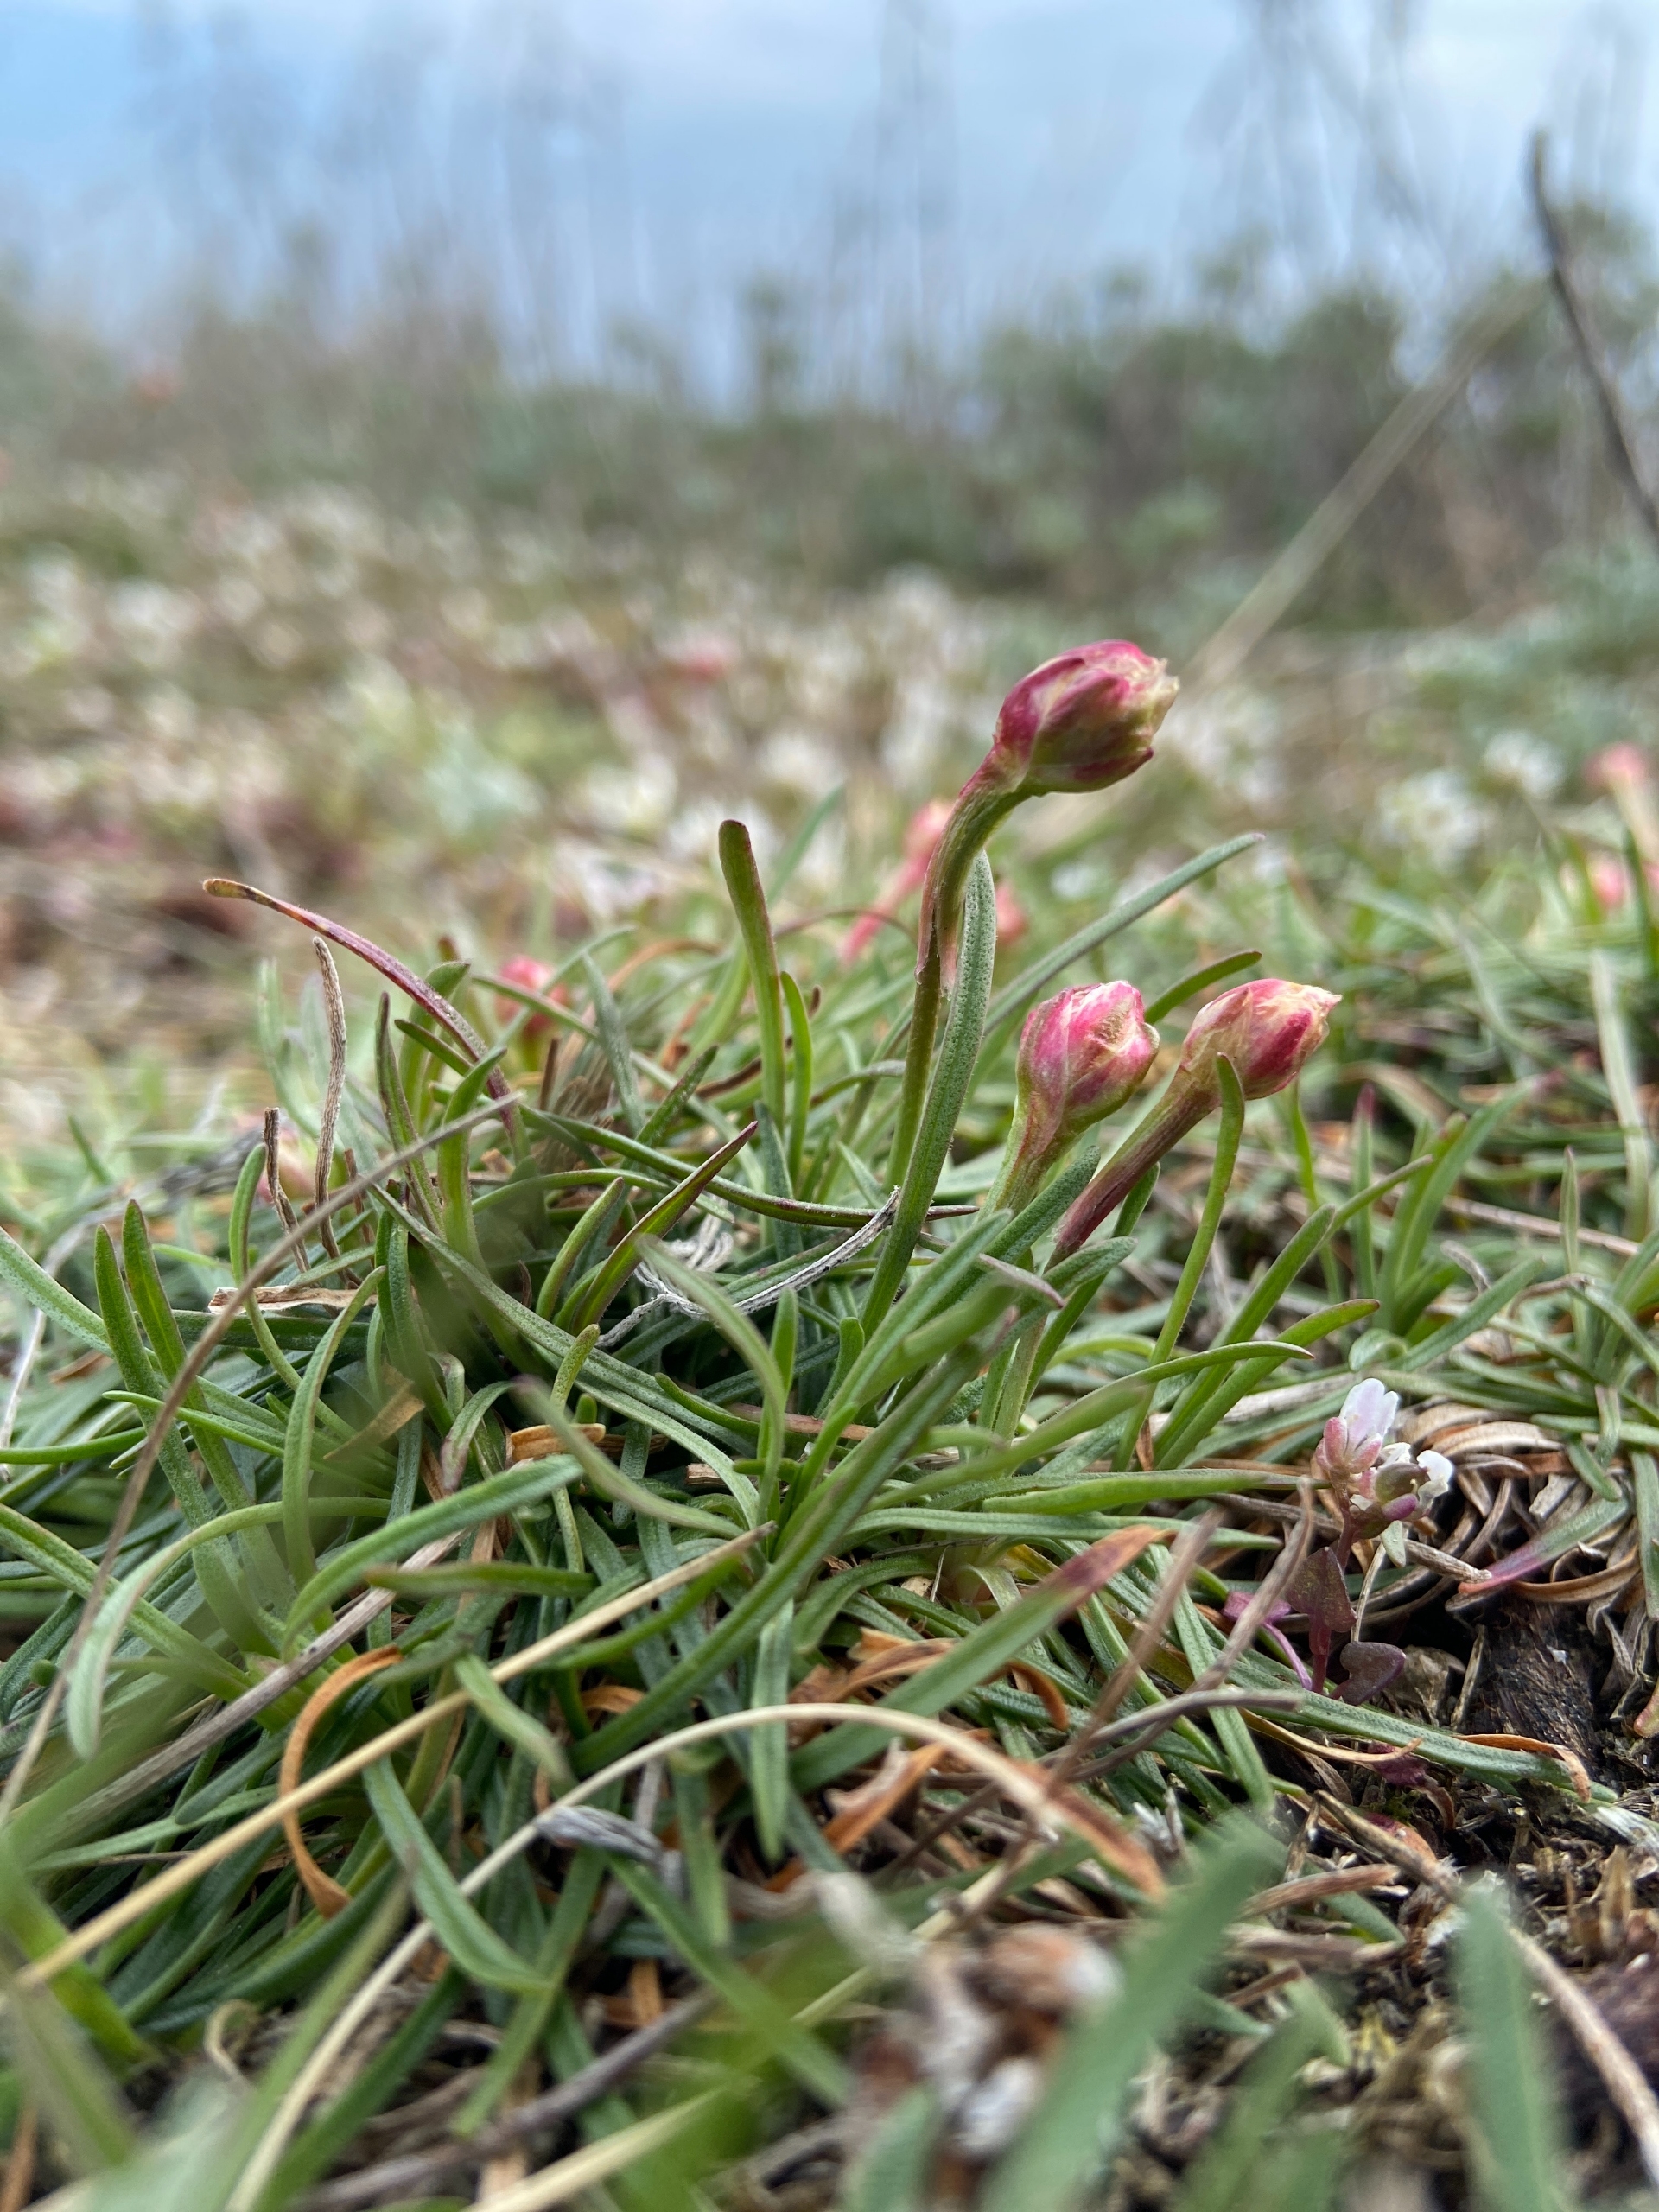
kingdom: Plantae
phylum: Tracheophyta
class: Magnoliopsida
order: Caryophyllales
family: Plumbaginaceae
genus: Armeria
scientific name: Armeria maritima
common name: Engelskgræs
